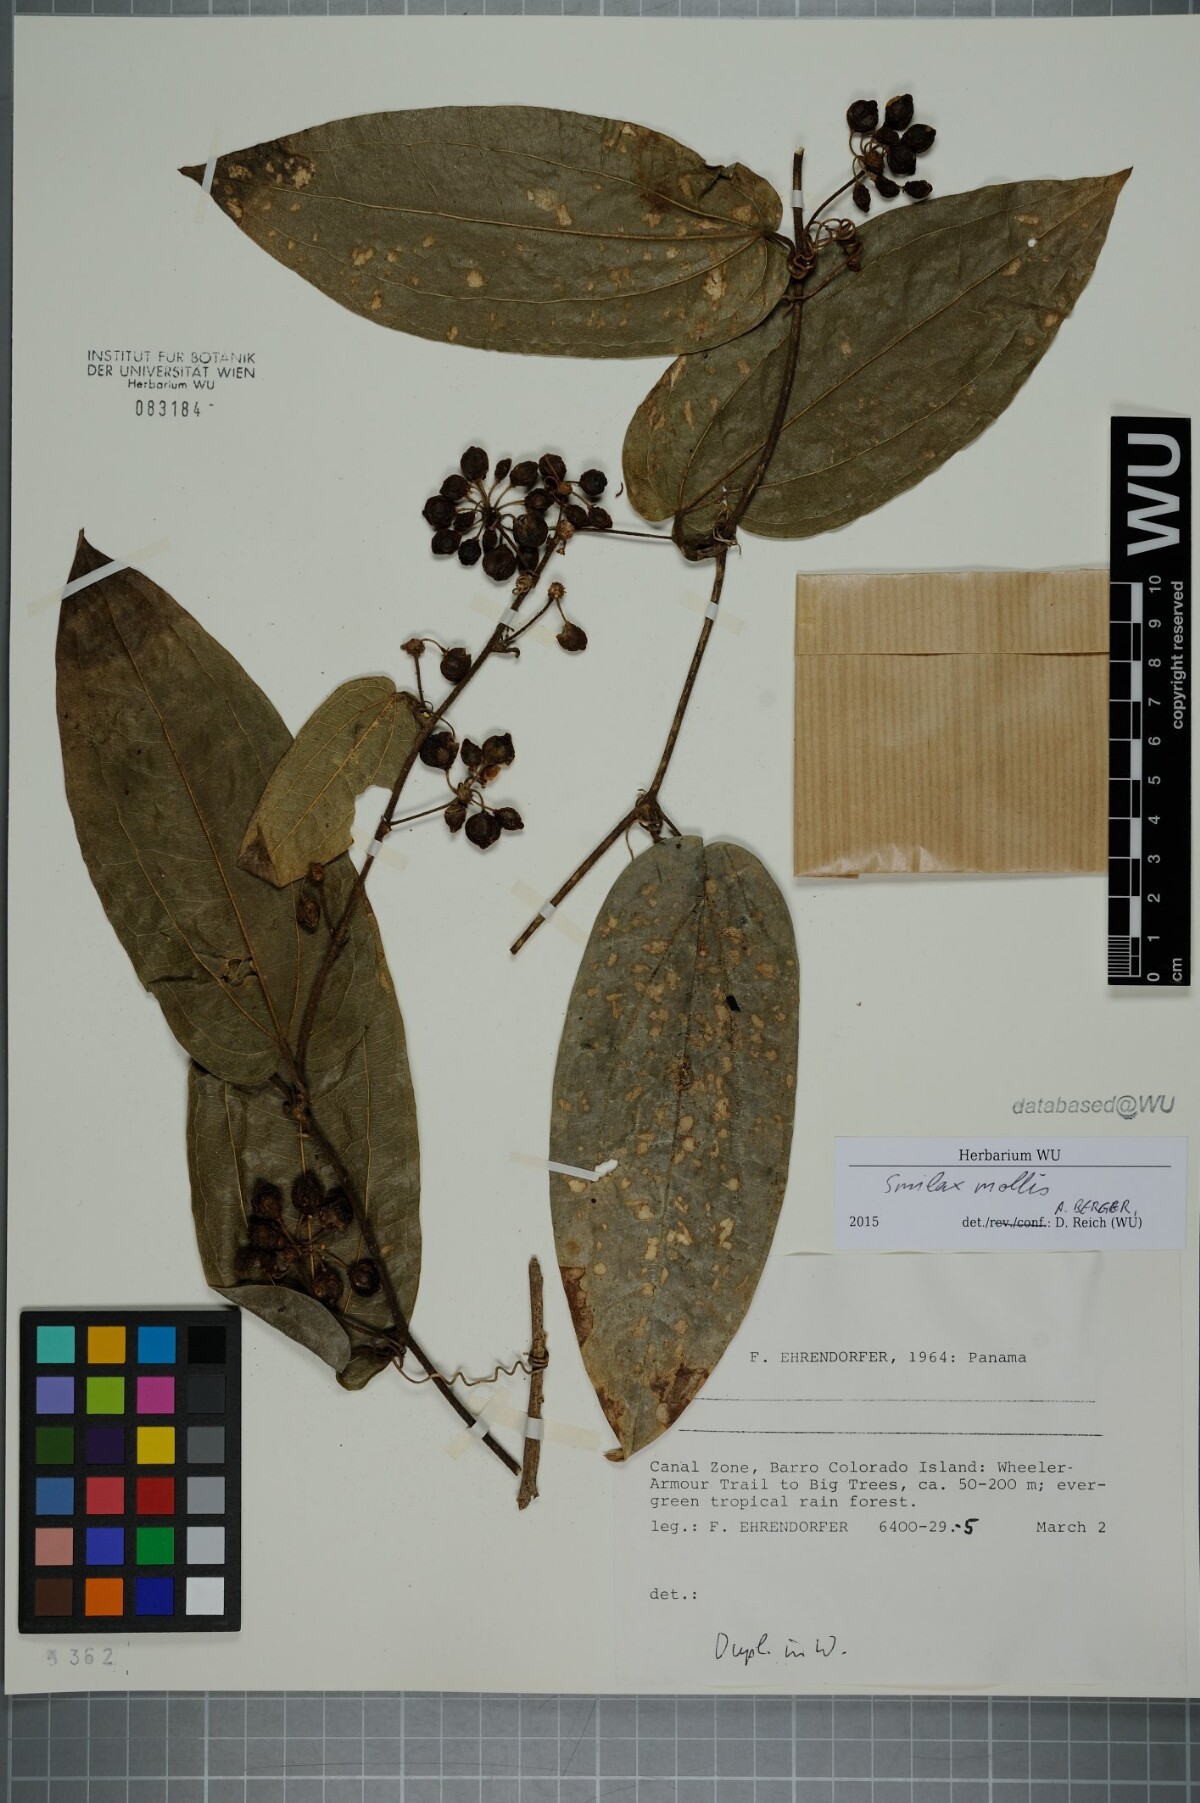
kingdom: Plantae
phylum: Tracheophyta
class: Liliopsida
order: Liliales
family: Smilacaceae
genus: Smilax
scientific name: Smilax mollis
